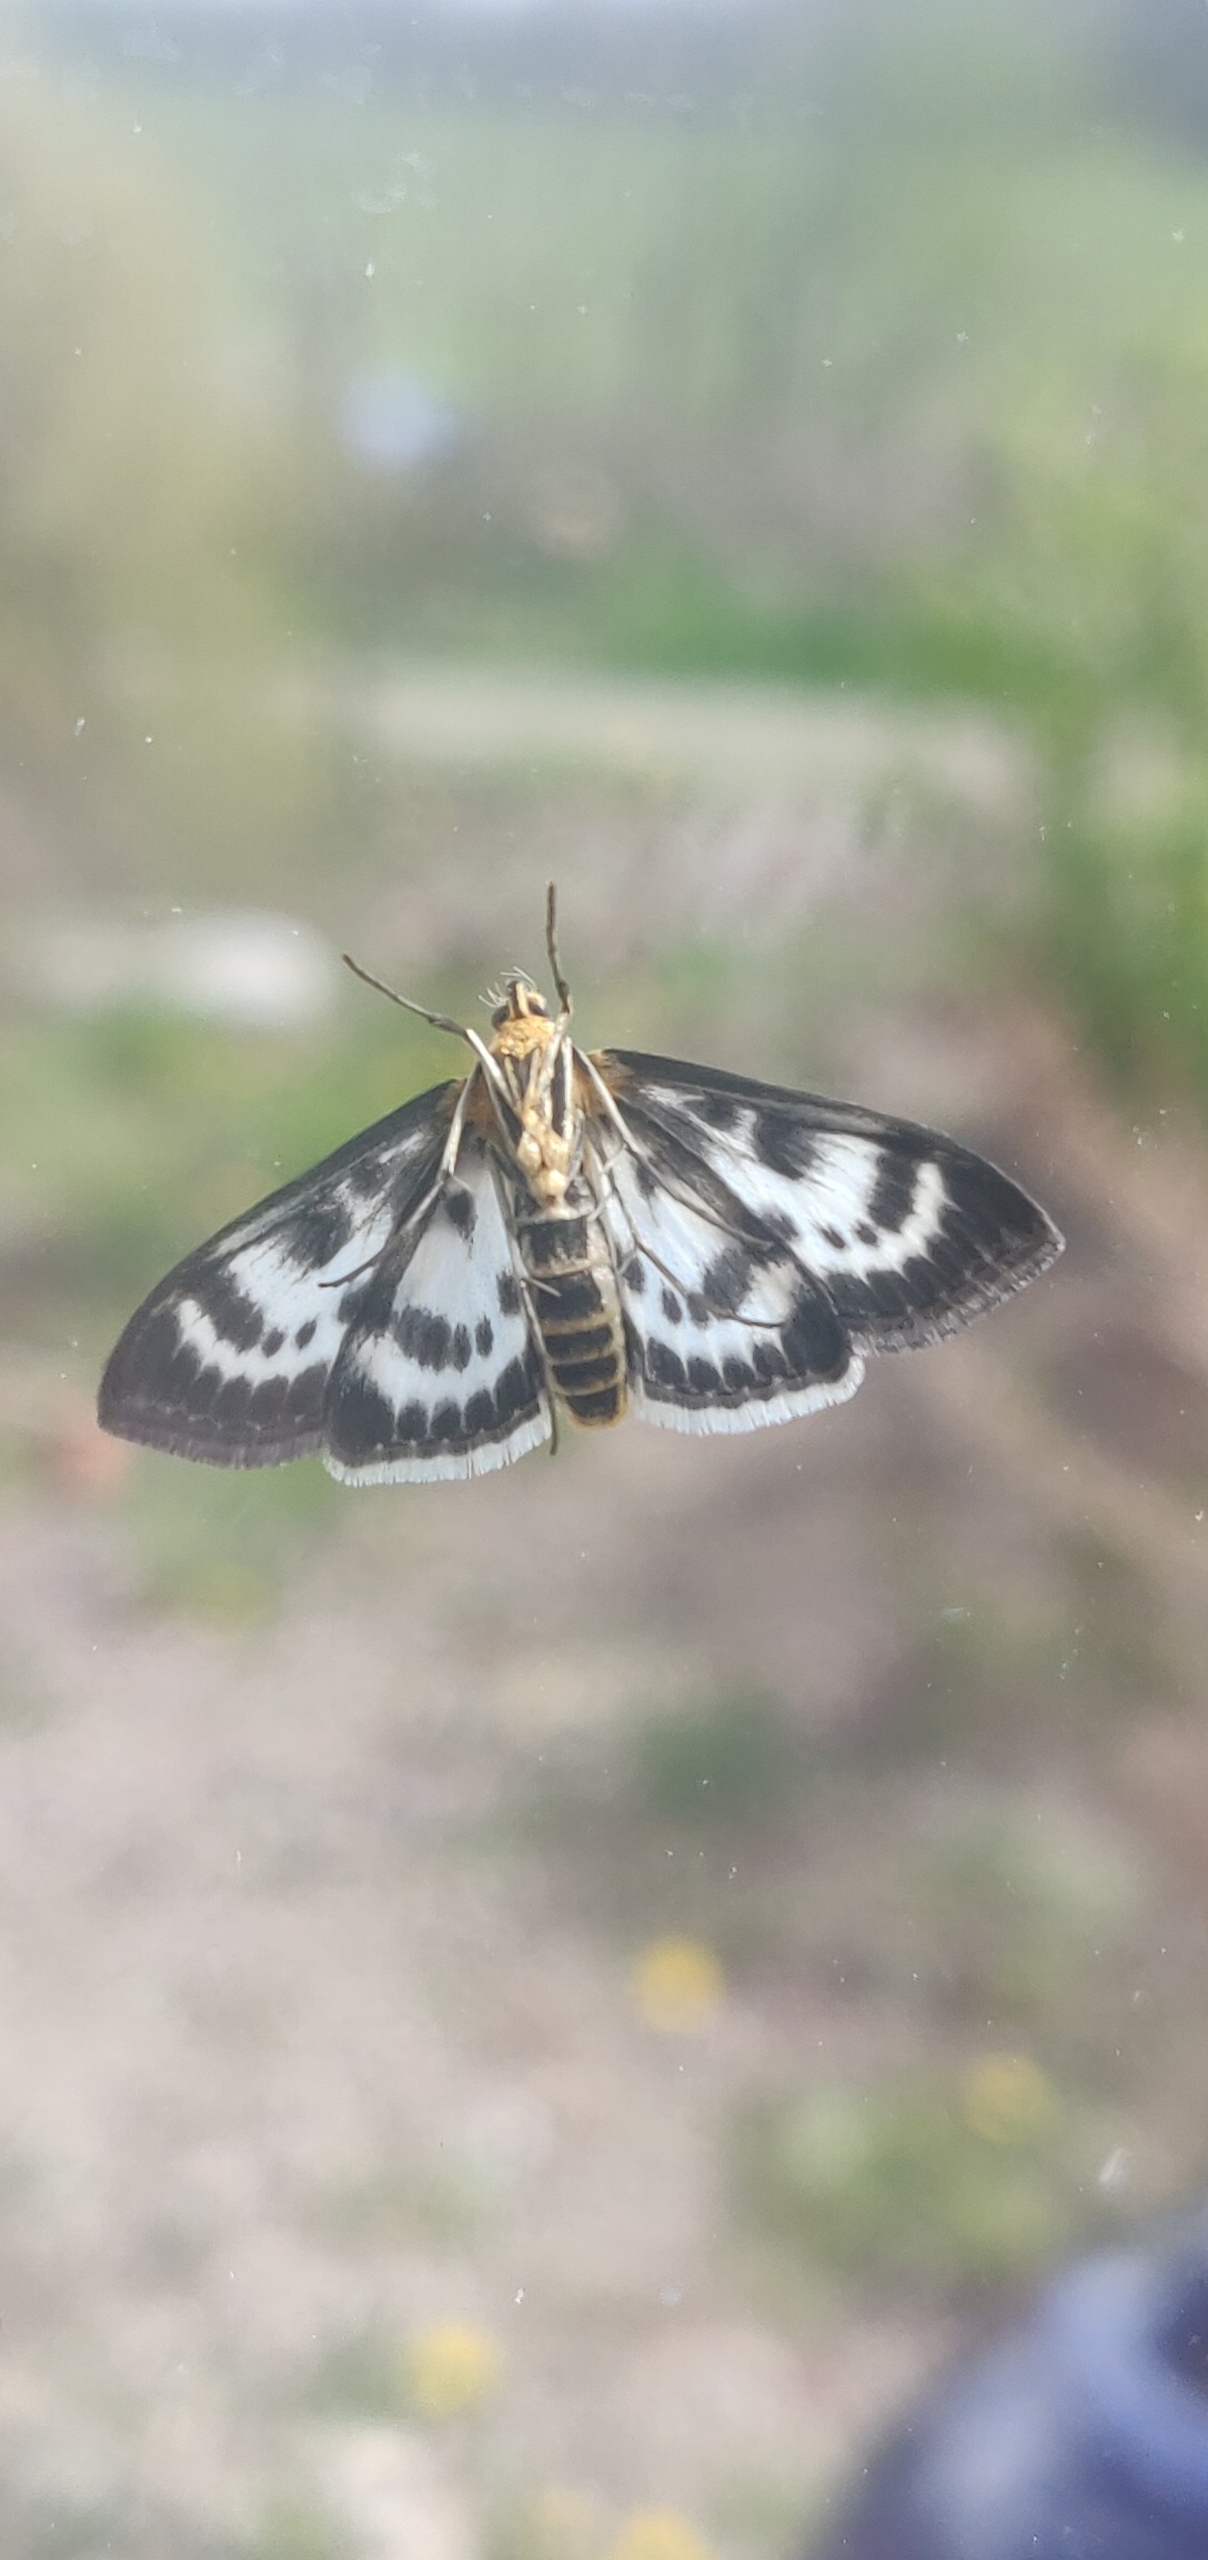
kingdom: Animalia
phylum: Arthropoda
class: Insecta
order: Lepidoptera
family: Crambidae
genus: Anania
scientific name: Anania hortulata
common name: Nældehalvmøl
